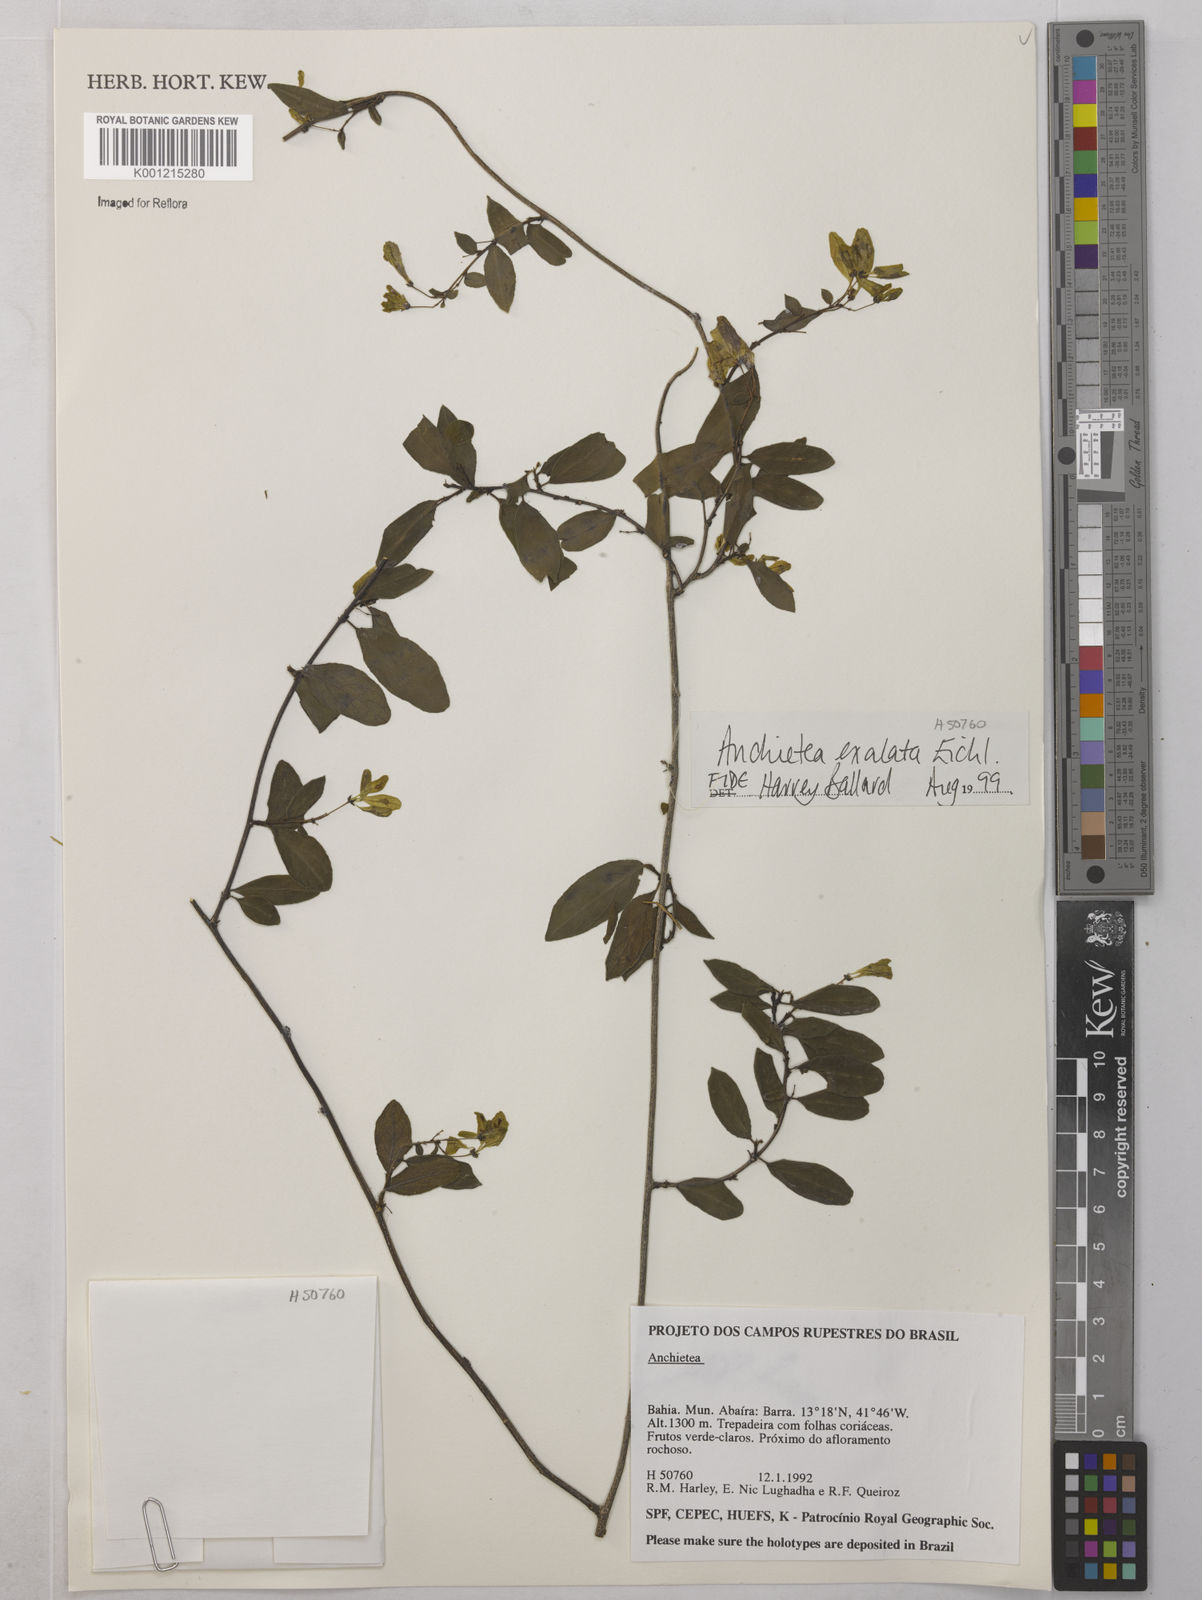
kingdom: Plantae
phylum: Tracheophyta
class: Magnoliopsida
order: Malpighiales
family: Violaceae
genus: Anchietea
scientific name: Anchietea exaltata
